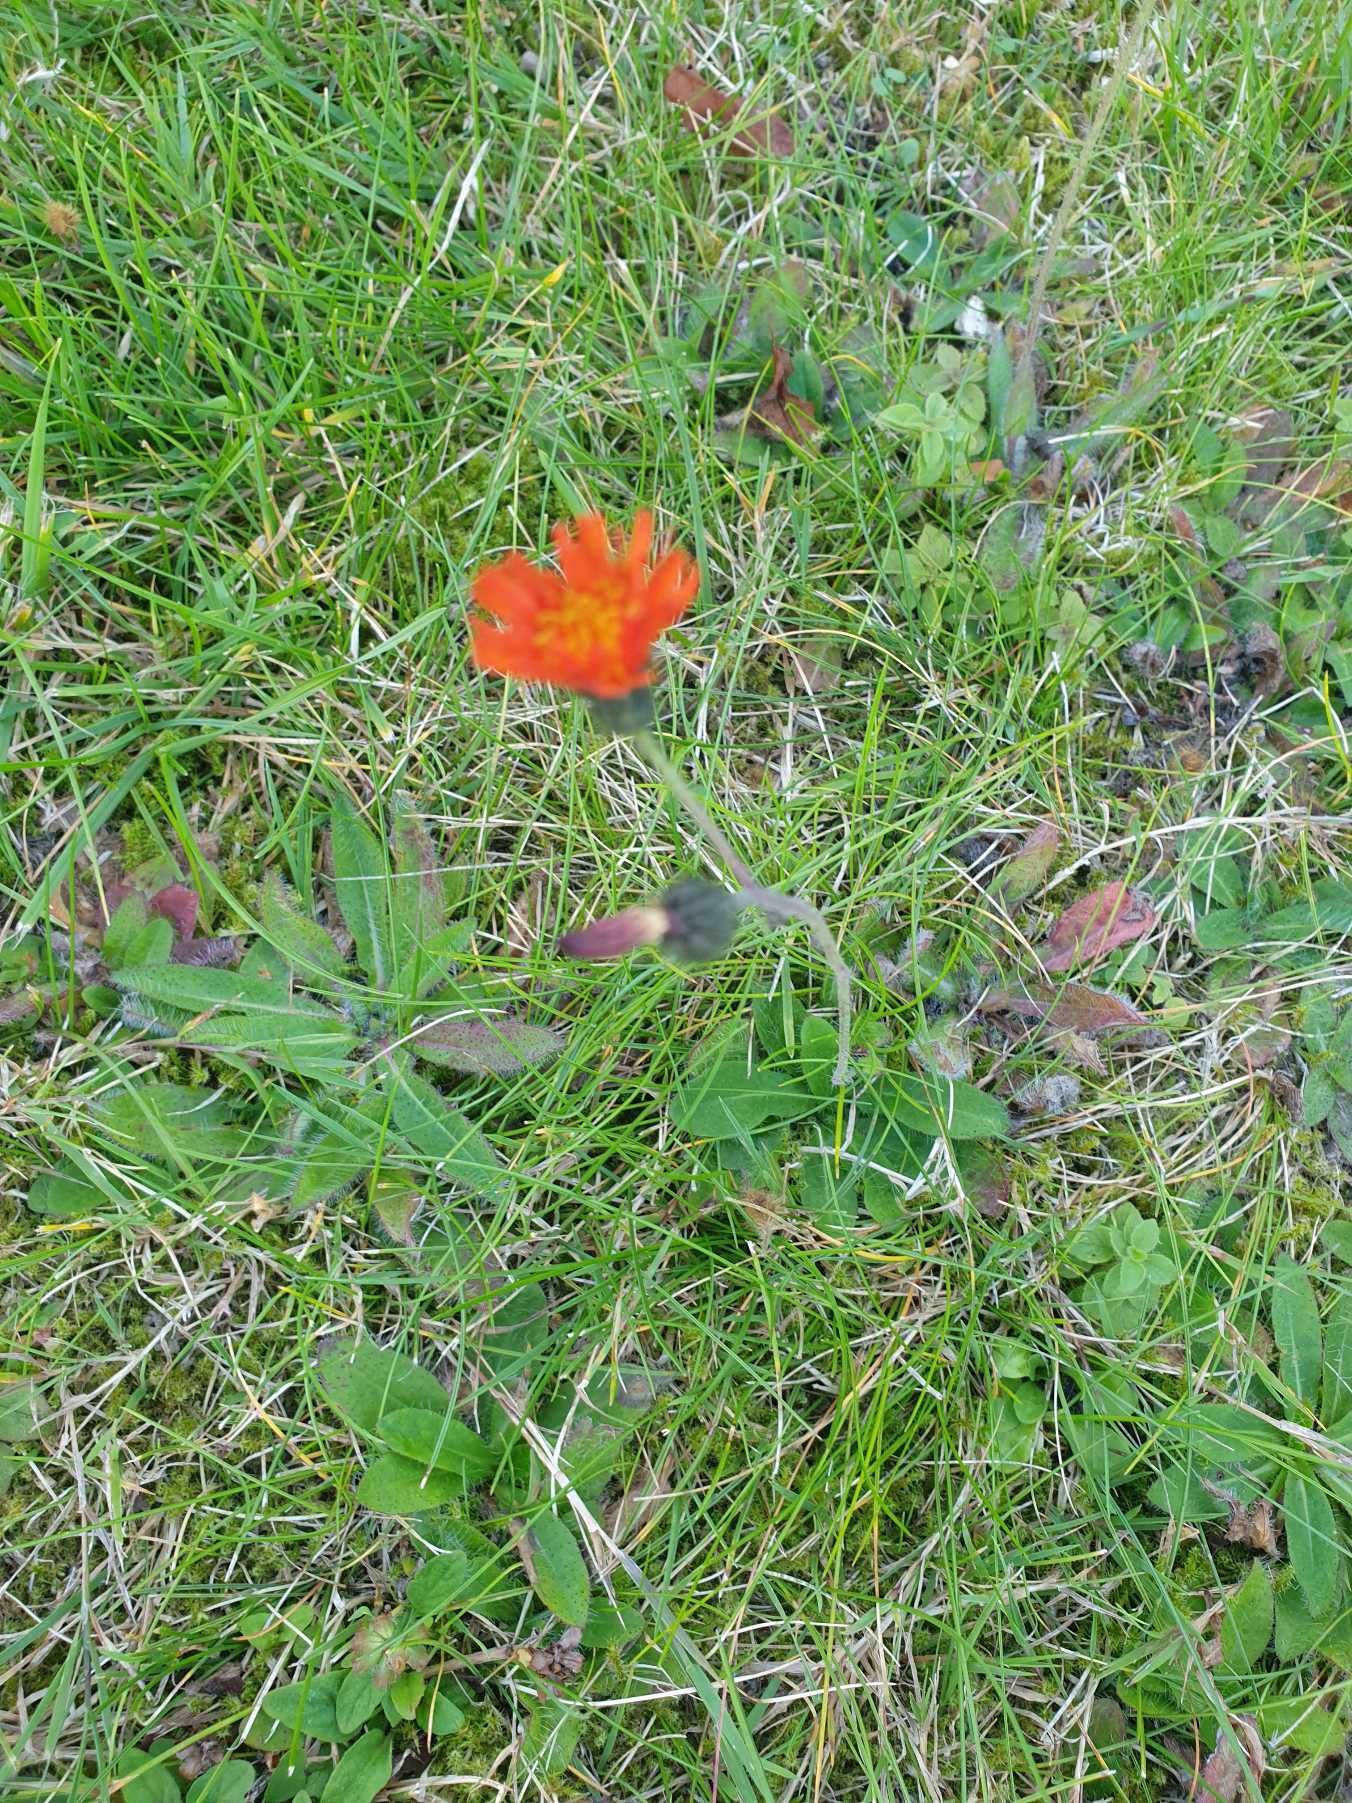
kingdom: Plantae
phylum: Tracheophyta
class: Magnoliopsida
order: Asterales
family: Asteraceae
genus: Pilosella
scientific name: Pilosella aurantiaca
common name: Pomerans-høgeurt
